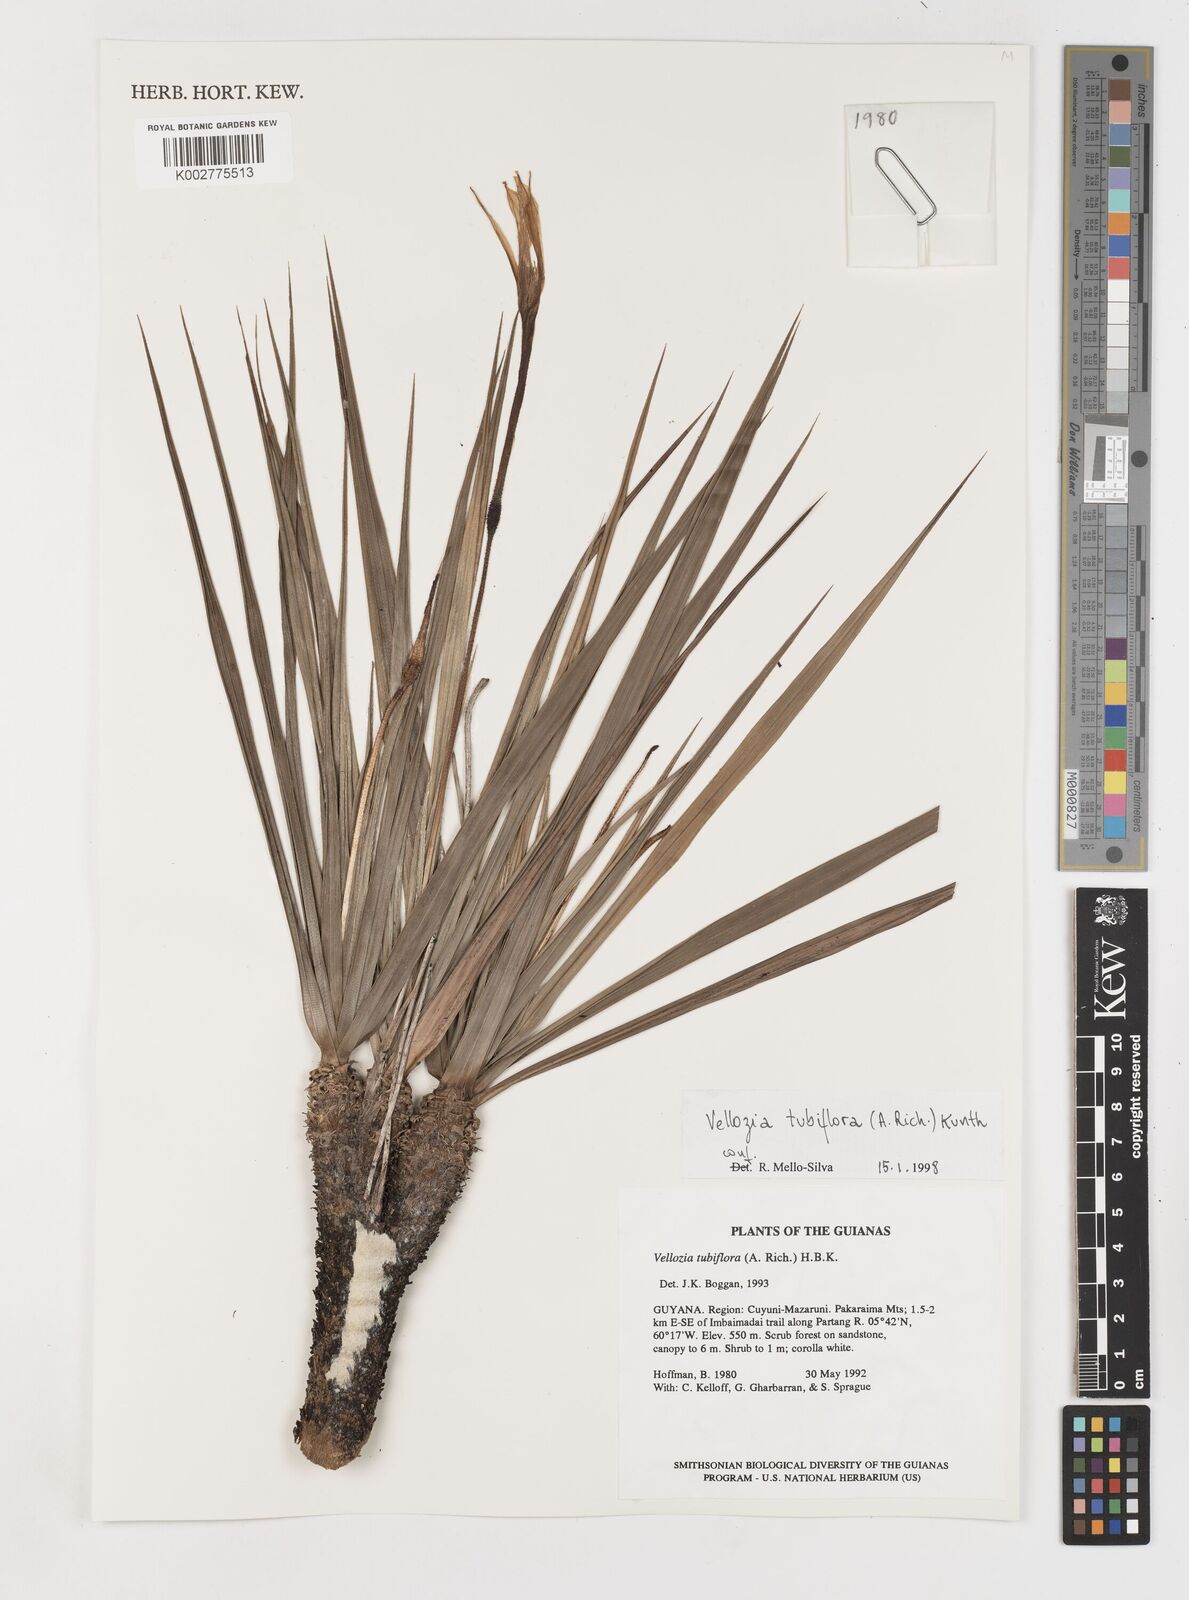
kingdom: Plantae
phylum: Tracheophyta
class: Liliopsida
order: Pandanales
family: Velloziaceae
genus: Vellozia
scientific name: Vellozia tubiflora
